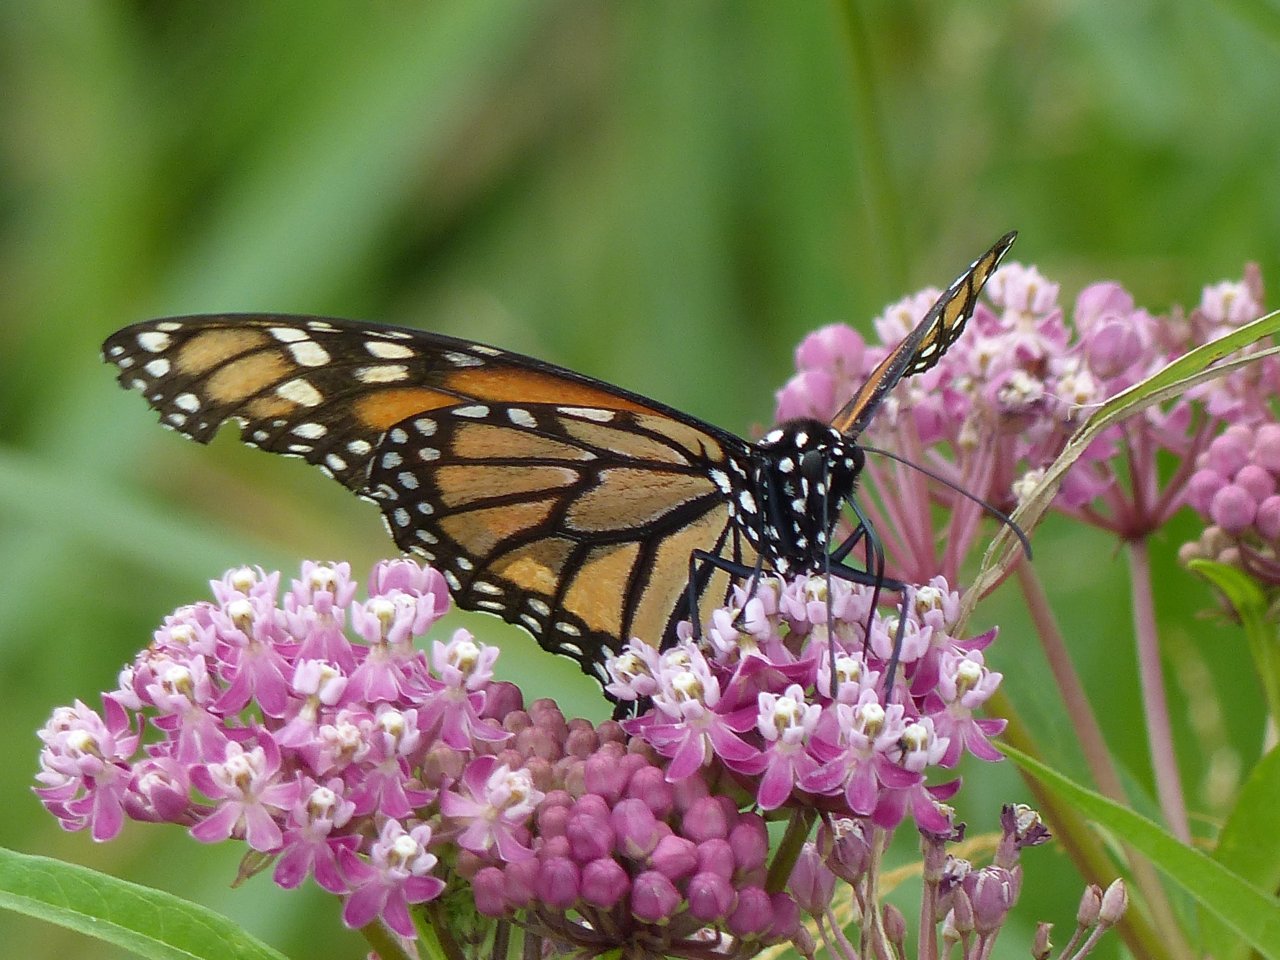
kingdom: Animalia
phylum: Arthropoda
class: Insecta
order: Lepidoptera
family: Nymphalidae
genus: Danaus
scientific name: Danaus plexippus
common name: Monarch
